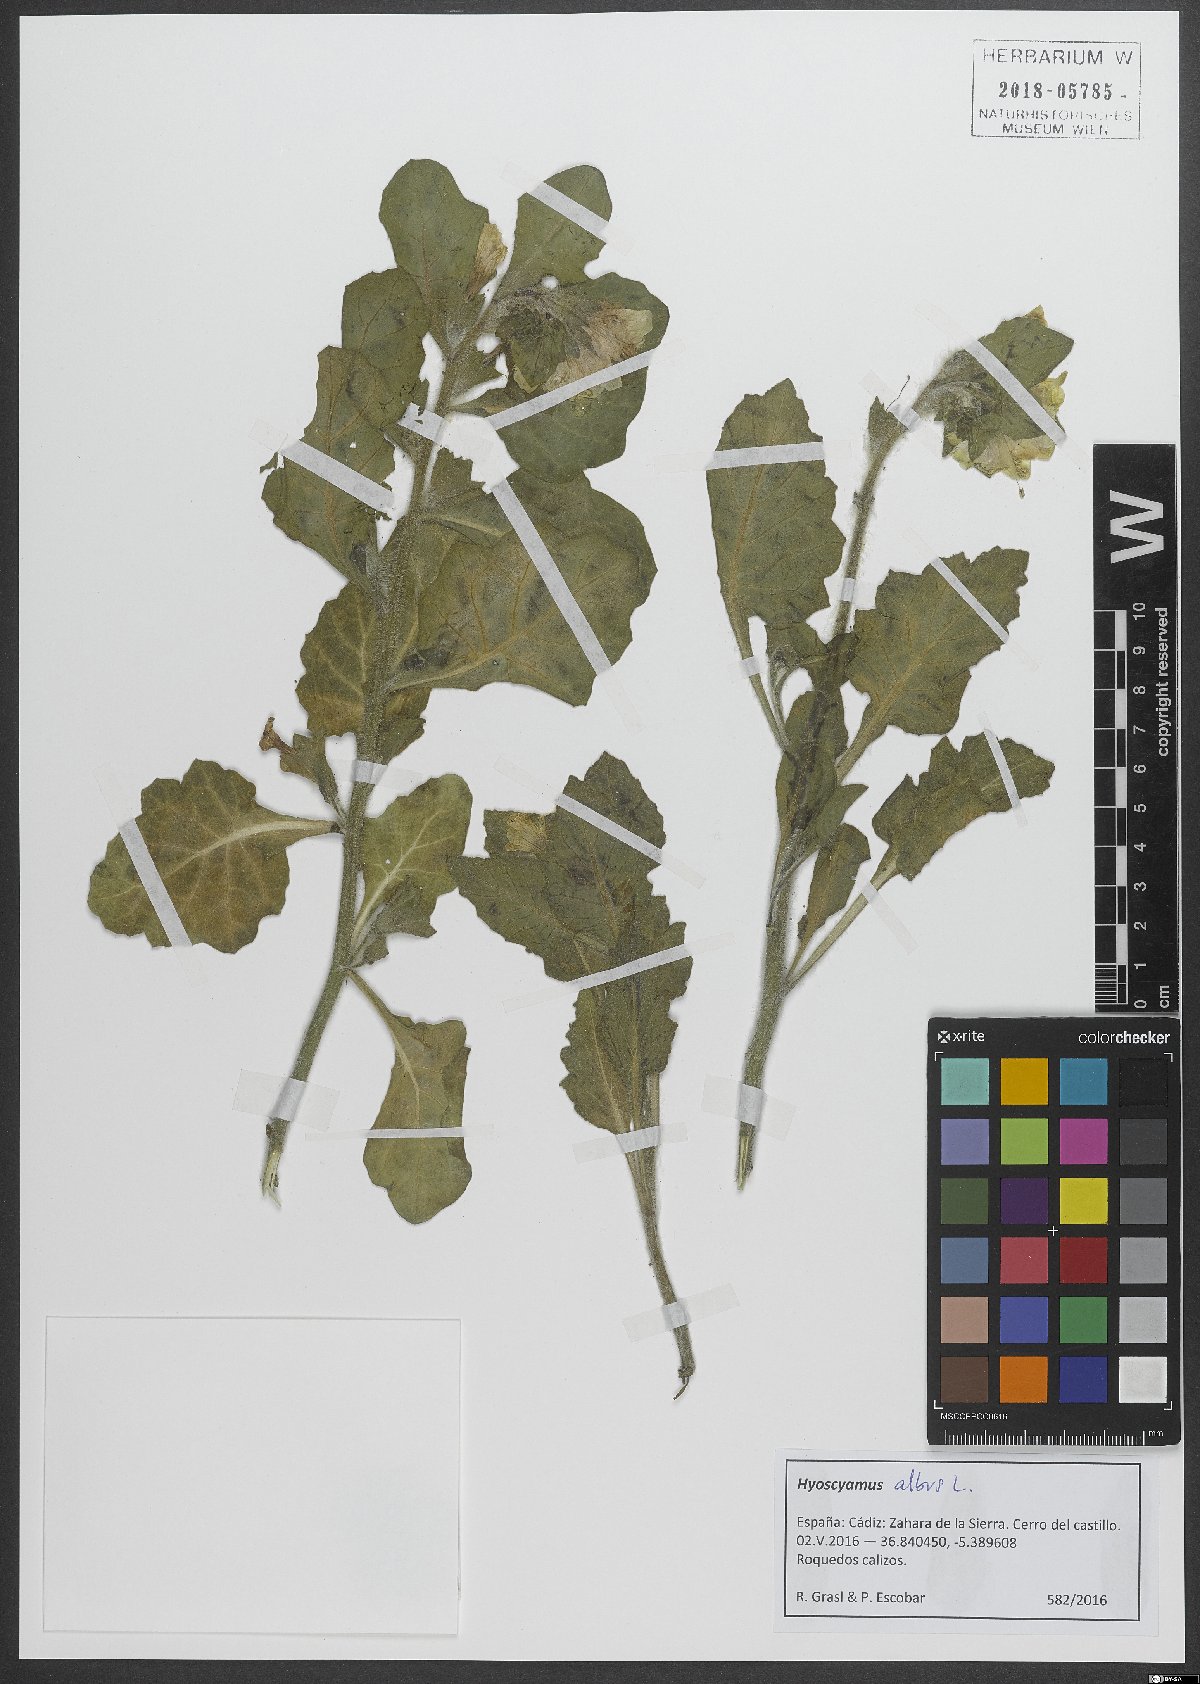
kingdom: Plantae
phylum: Tracheophyta
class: Magnoliopsida
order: Solanales
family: Solanaceae
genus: Hyoscyamus
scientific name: Hyoscyamus albus
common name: White henbane
